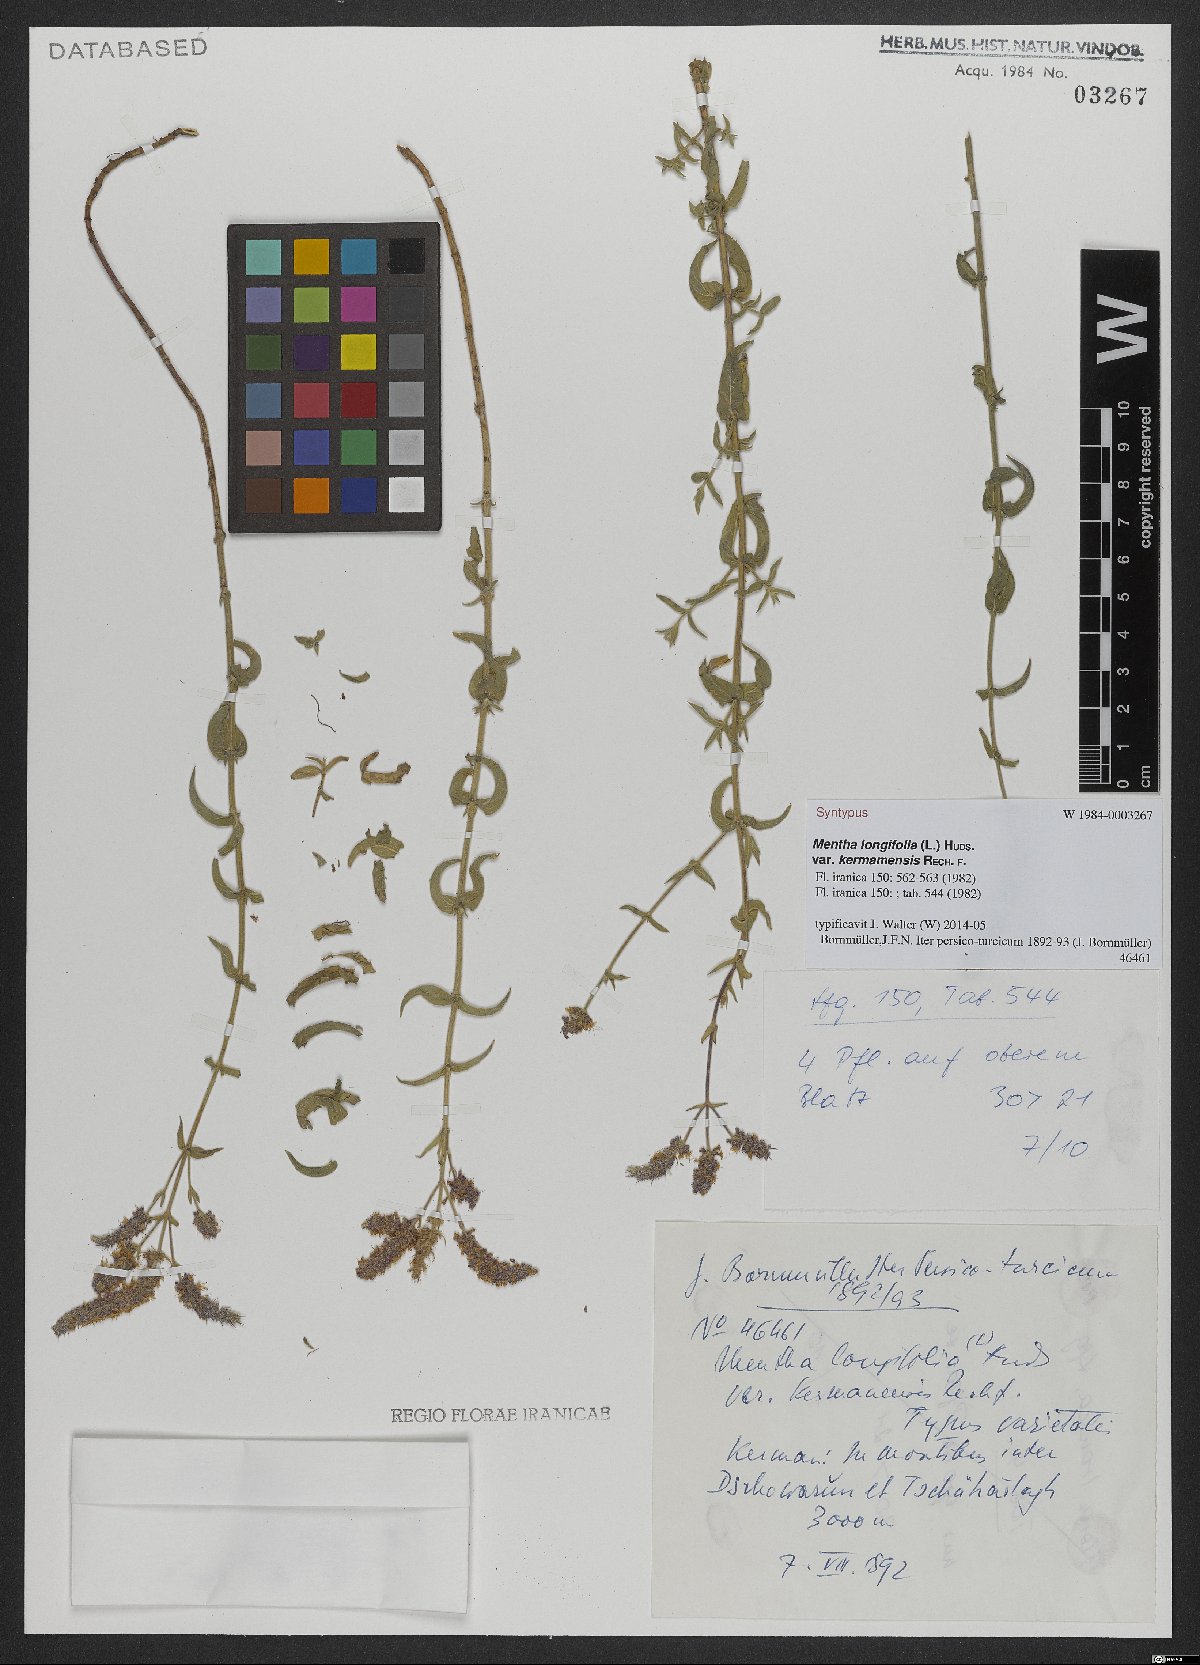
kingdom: Plantae
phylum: Tracheophyta
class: Magnoliopsida
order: Lamiales
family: Lamiaceae
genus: Mentha
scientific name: Mentha longifolia
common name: Horse mint
